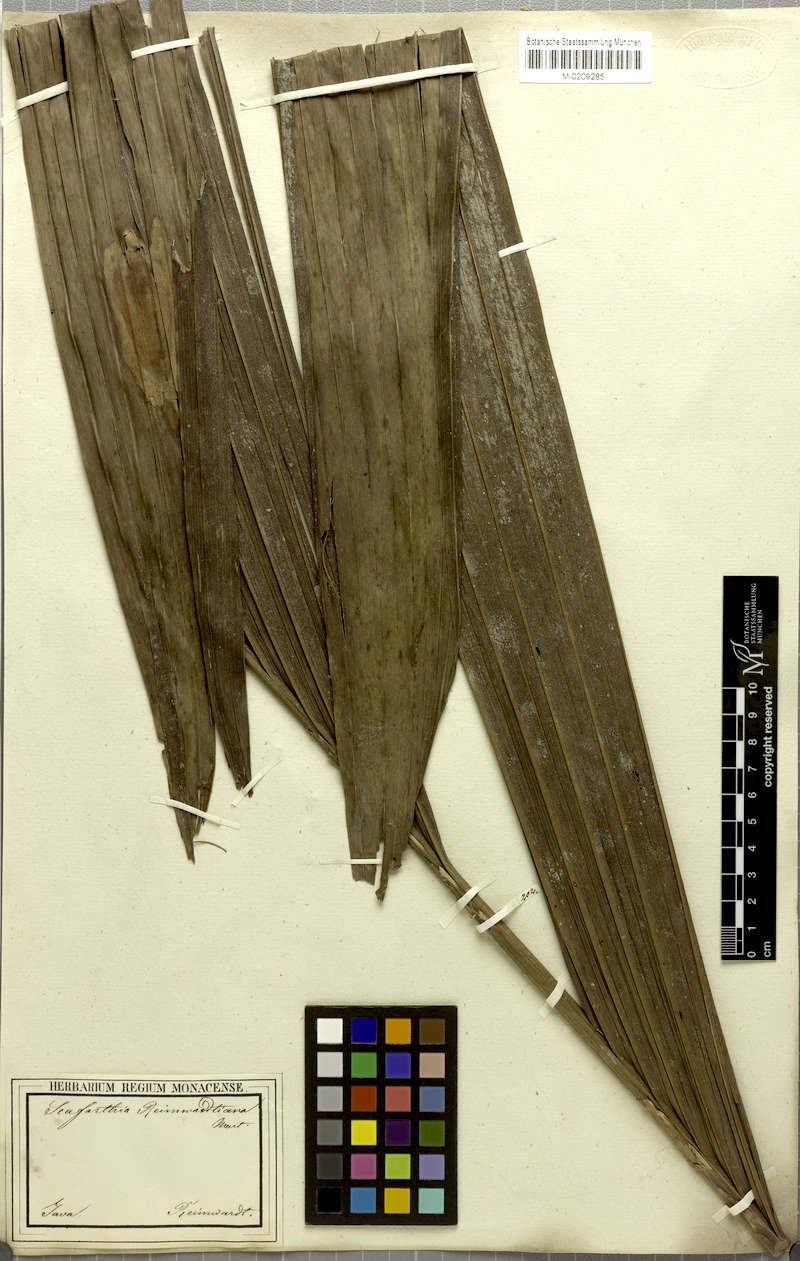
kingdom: Plantae
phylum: Tracheophyta
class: Liliopsida
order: Arecales
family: Arecaceae
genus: Pinanga
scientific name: Pinanga coronata
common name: Ivory cane palm
